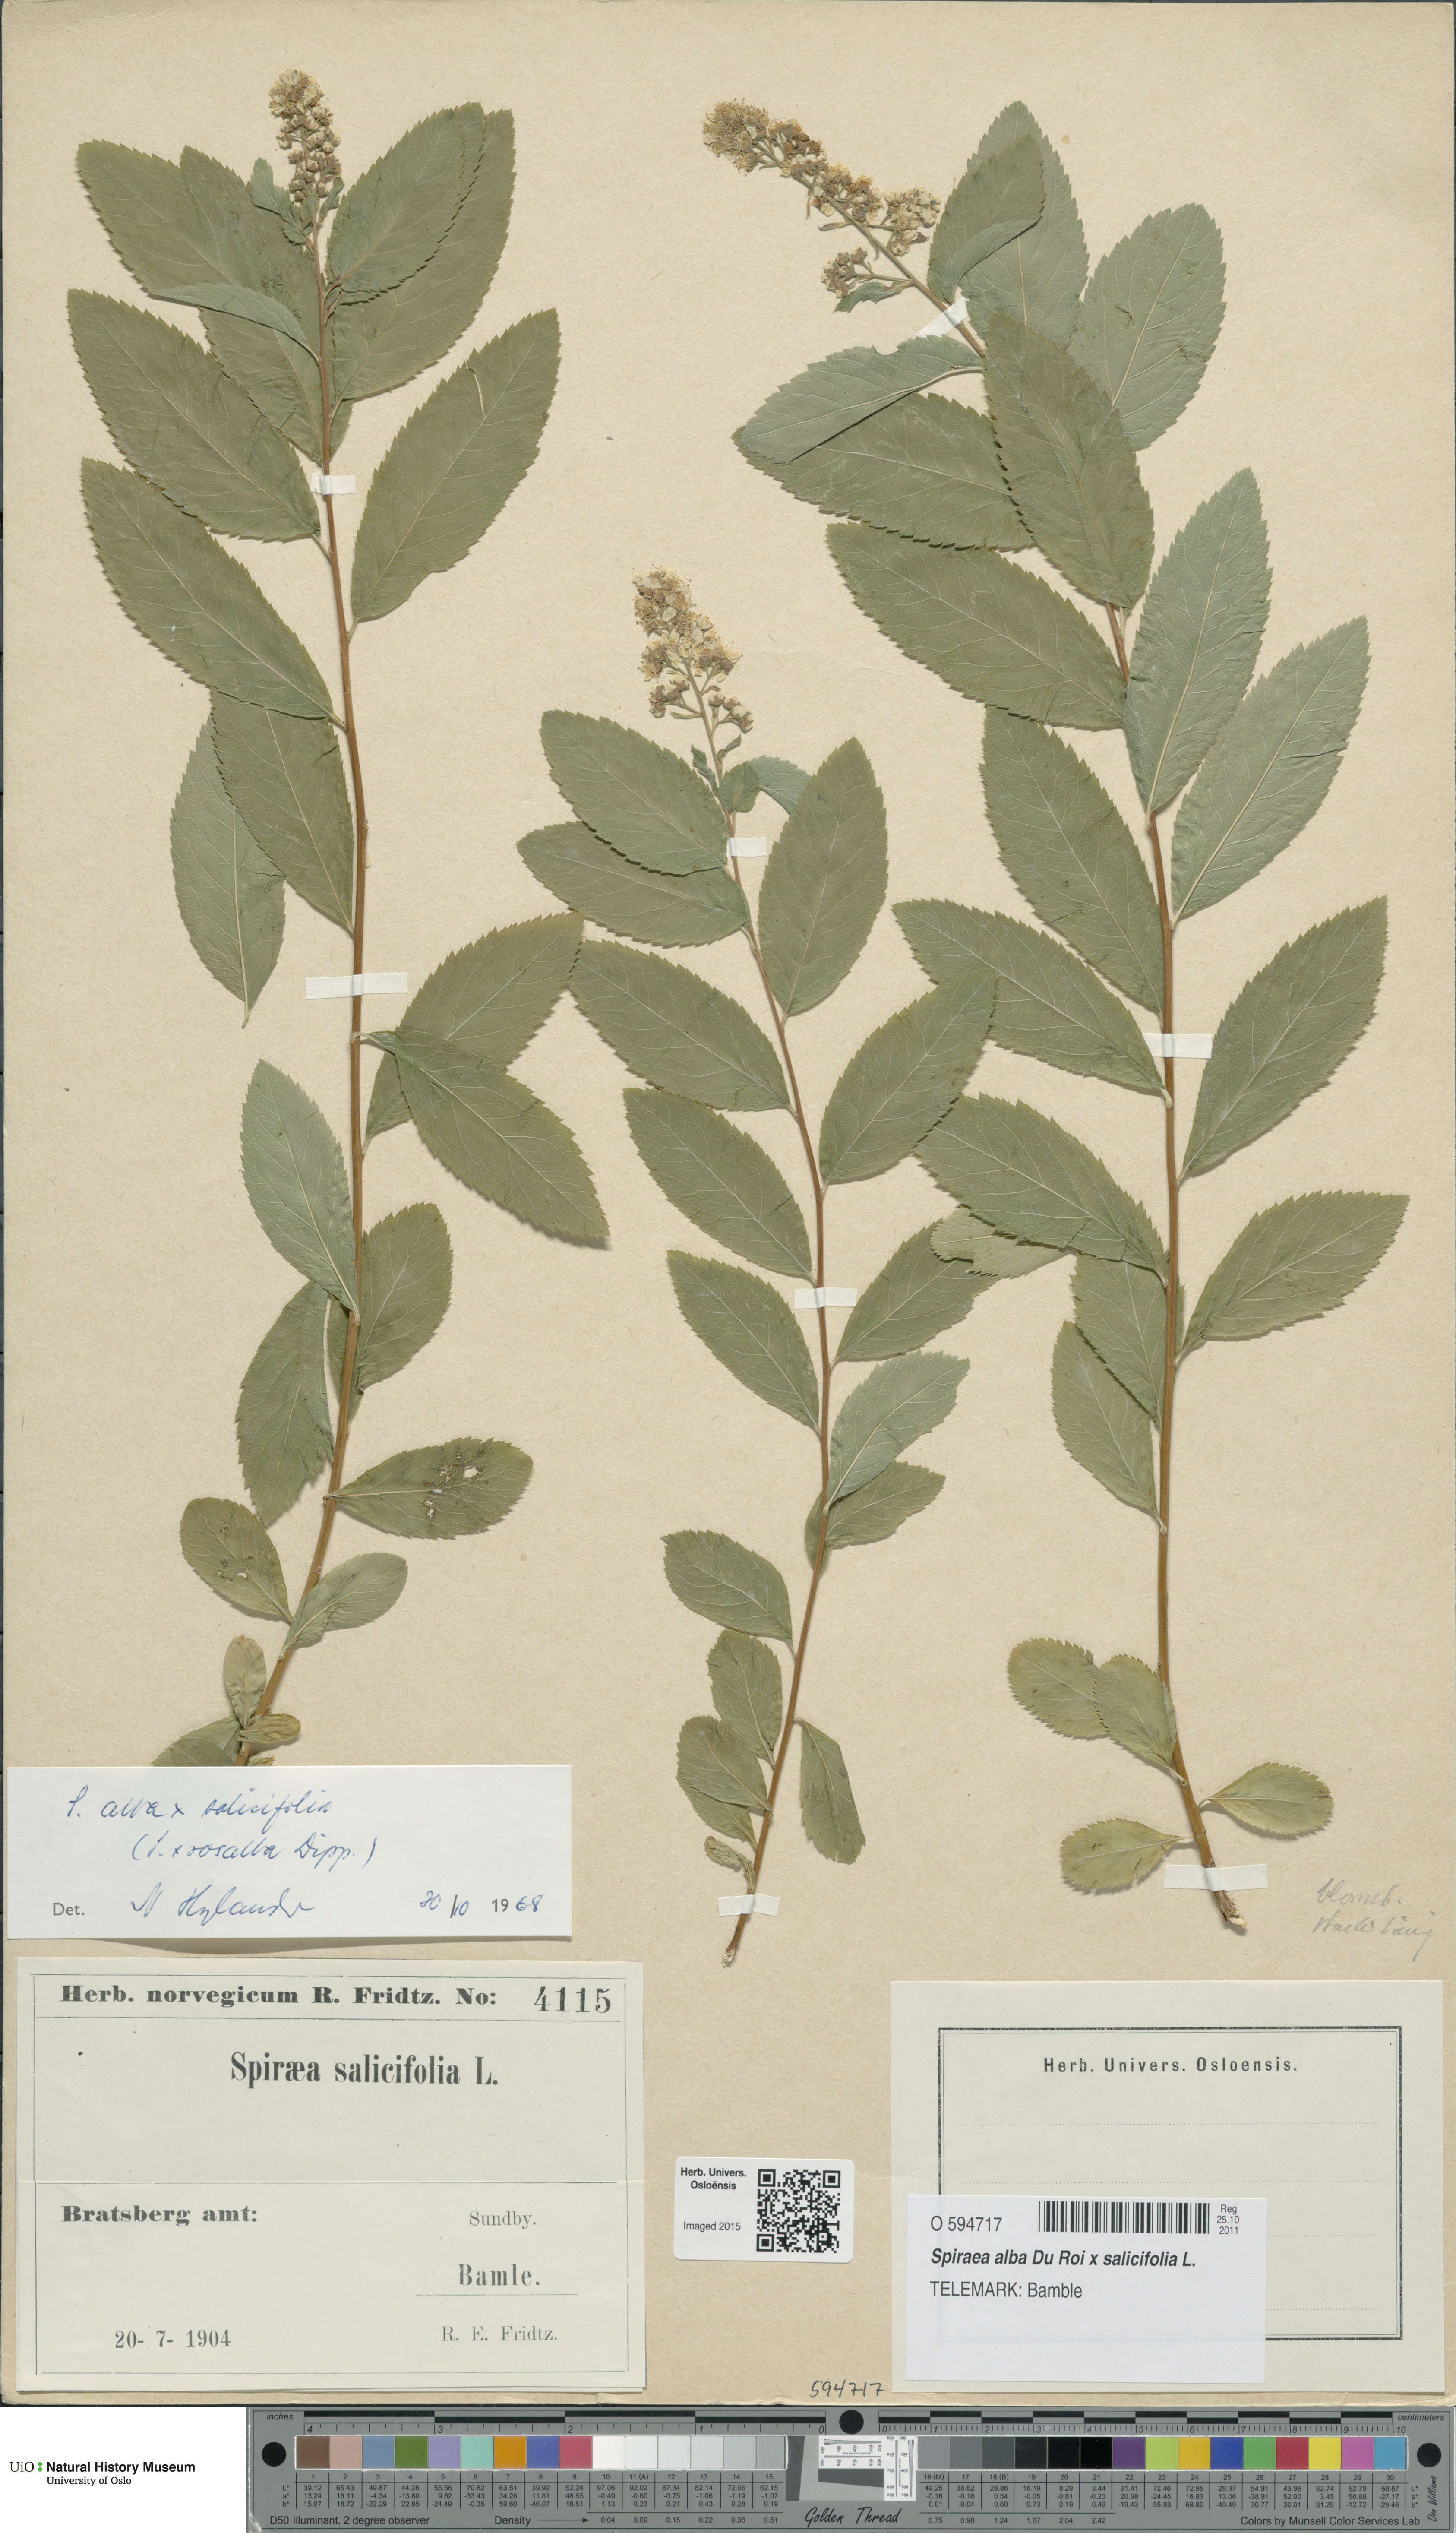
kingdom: Plantae
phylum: Tracheophyta
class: Magnoliopsida
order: Rosales
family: Rosaceae
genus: Spiraea
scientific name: Spiraea
